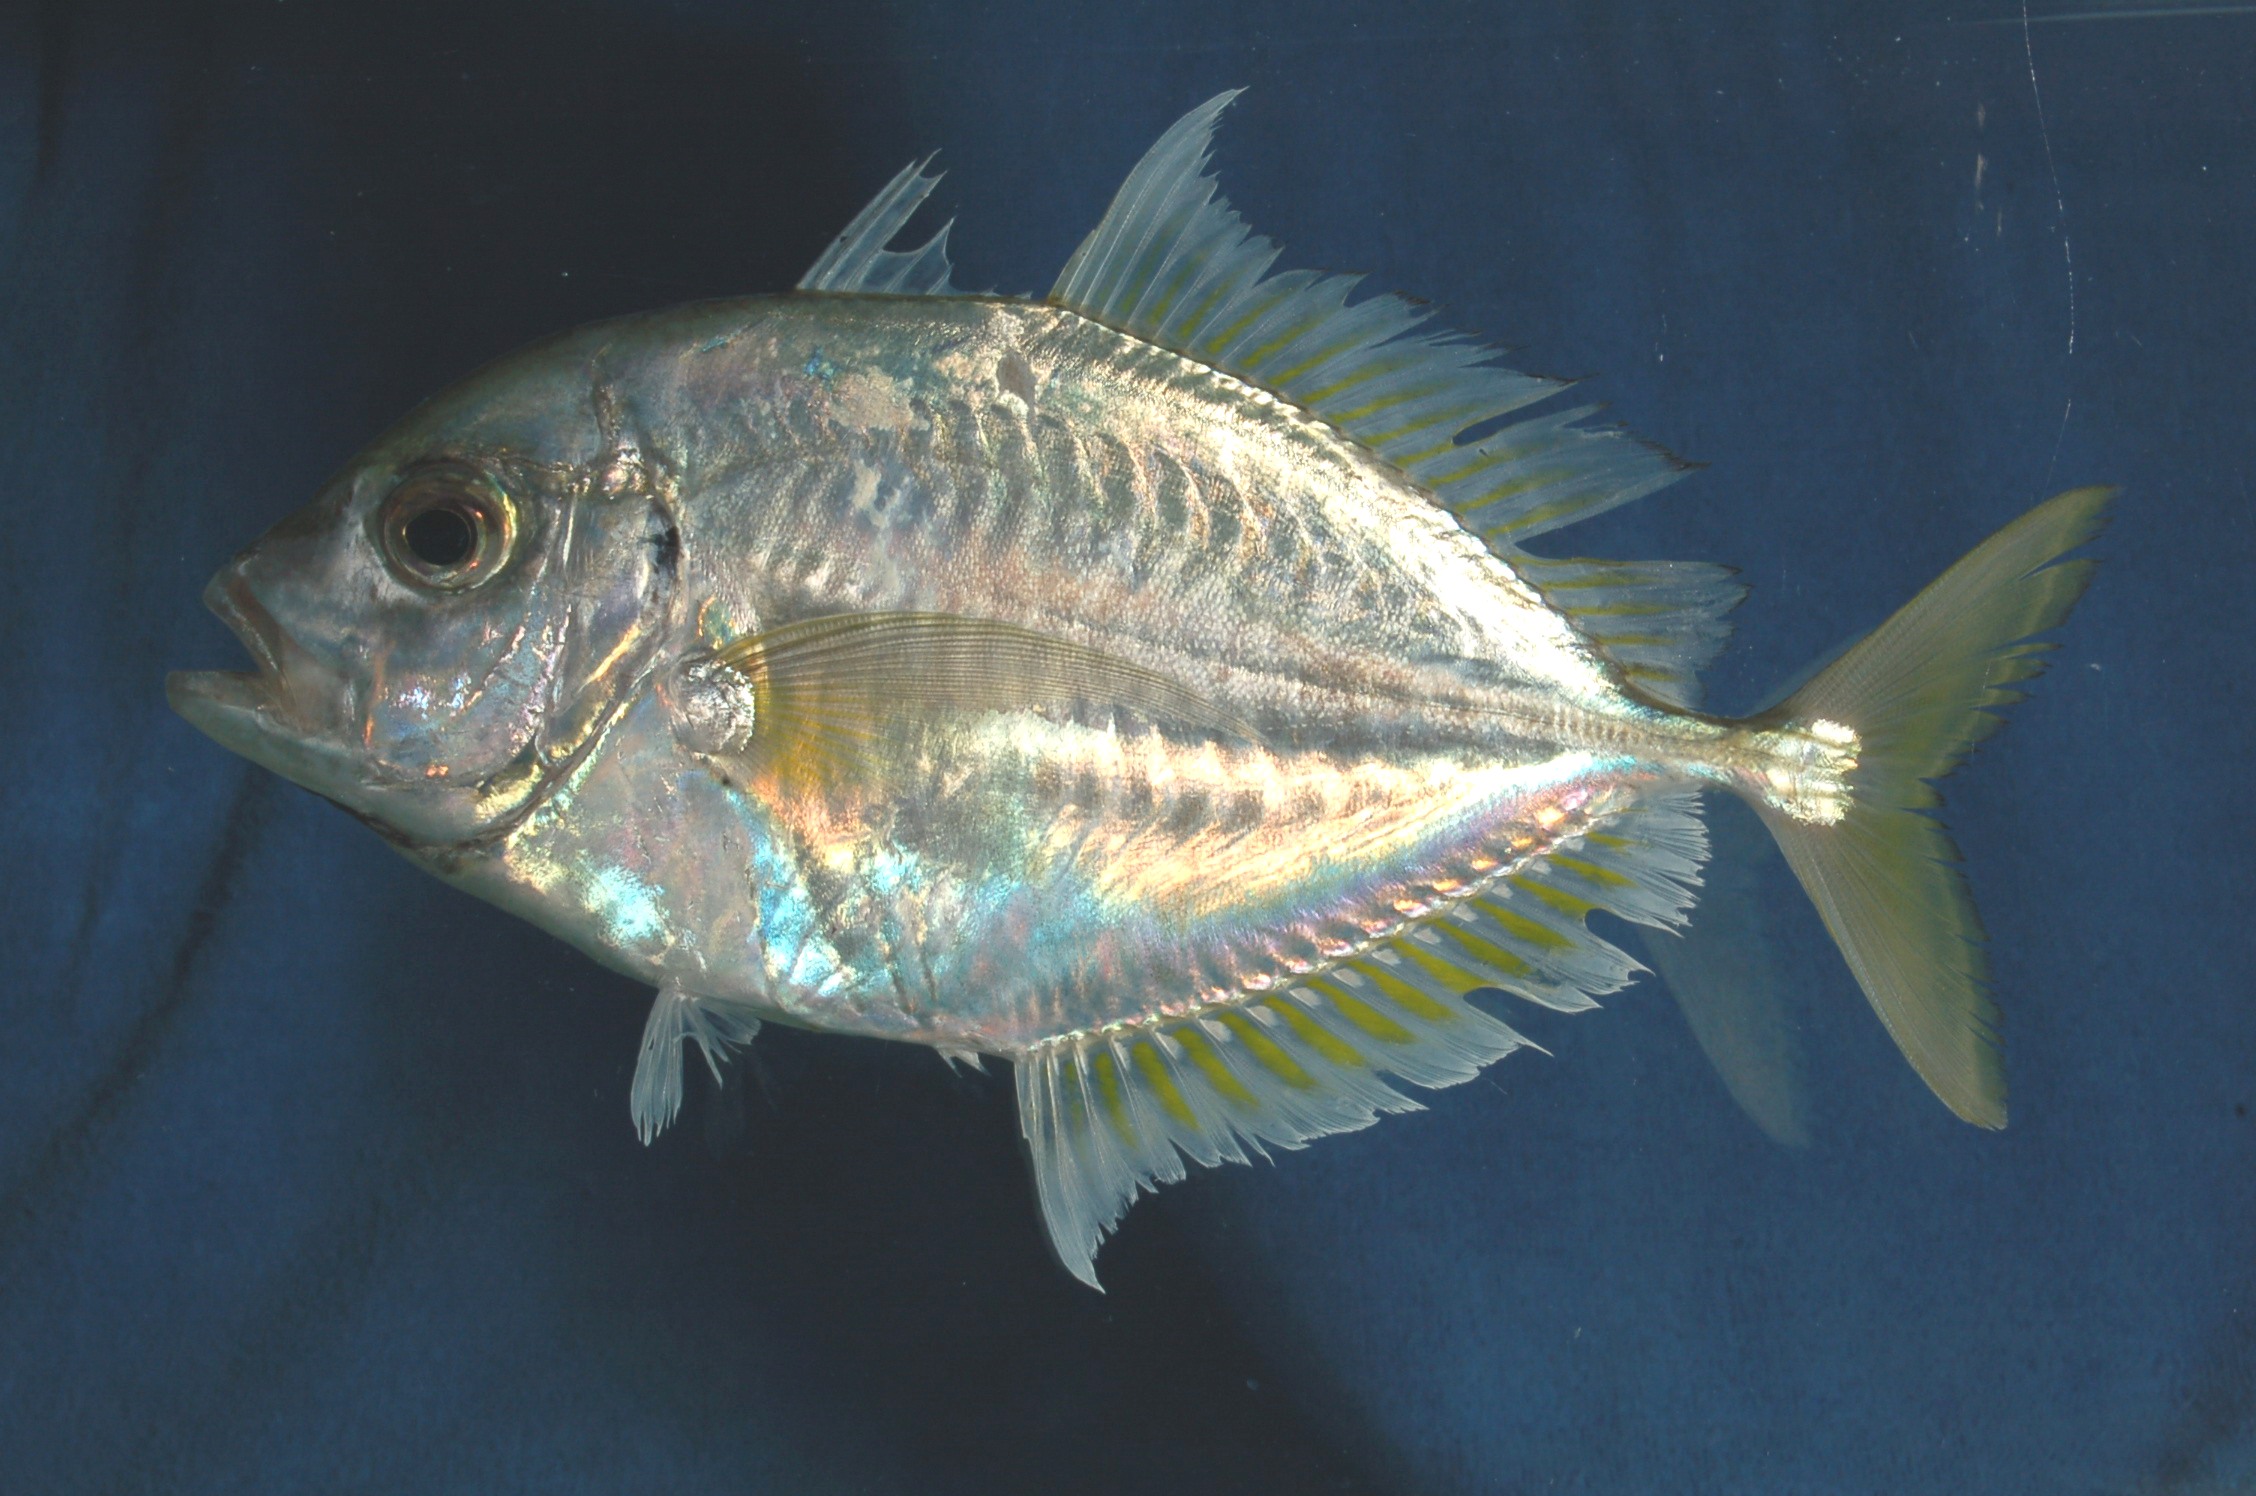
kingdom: Animalia
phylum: Chordata
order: Perciformes
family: Carangidae
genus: Carangoides
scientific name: Carangoides malabaricus
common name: Malabar trevally
